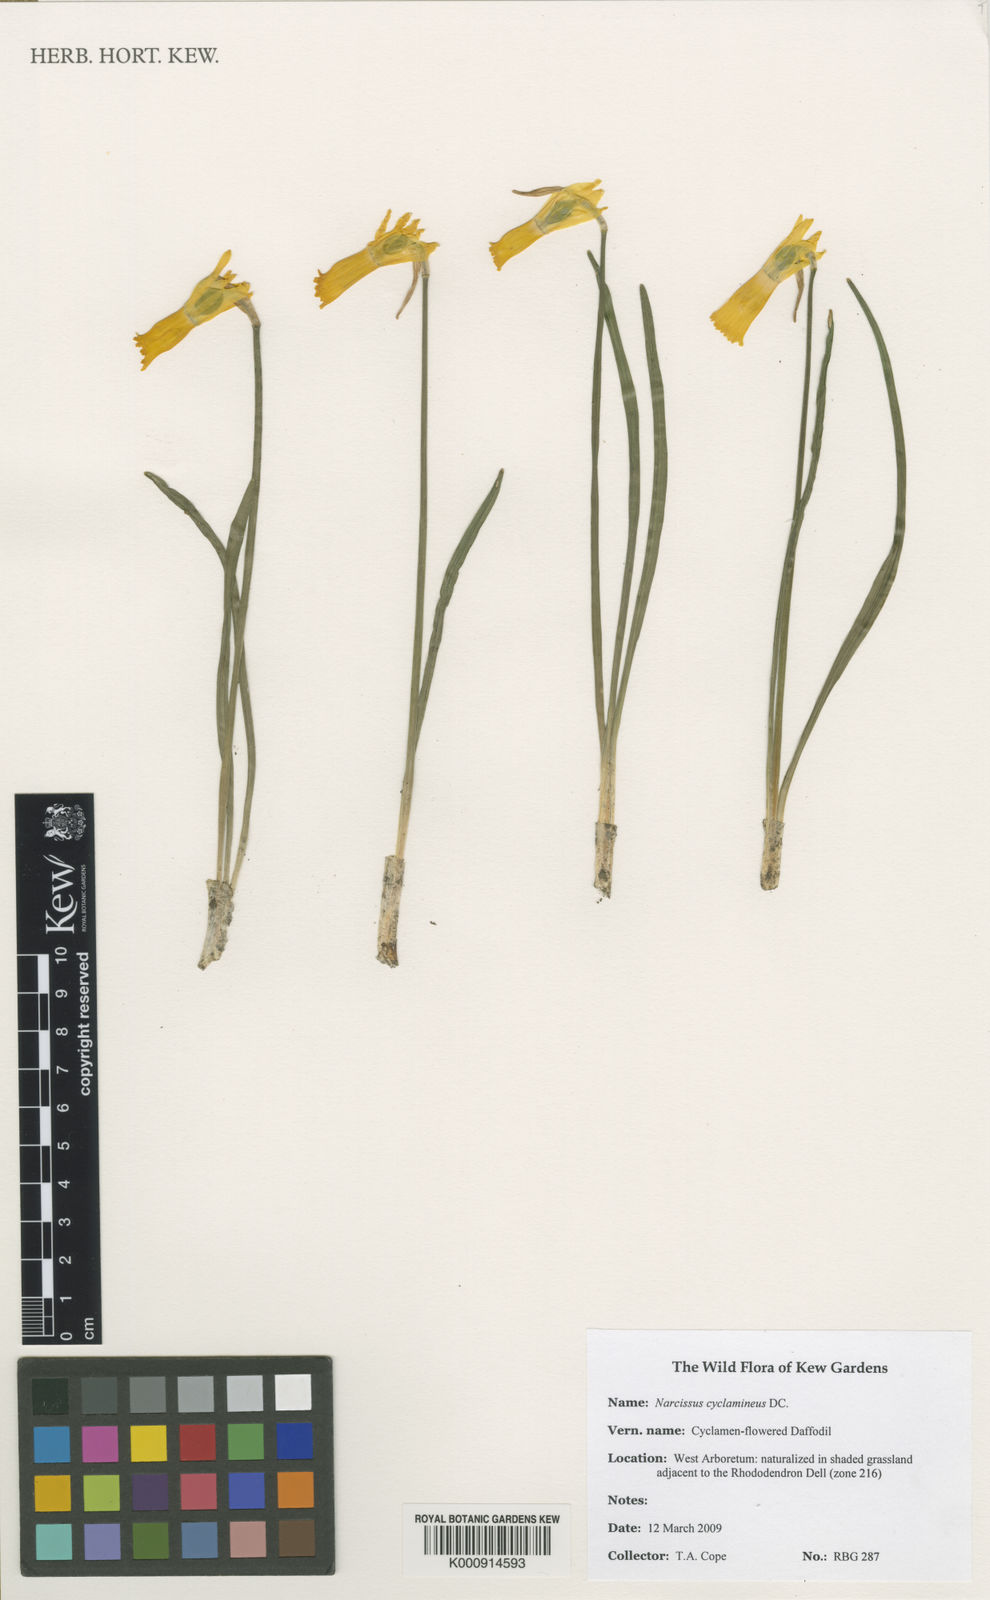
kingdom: Plantae
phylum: Tracheophyta
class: Liliopsida
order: Asparagales
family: Amaryllidaceae
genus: Narcissus
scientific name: Narcissus cyclamineus
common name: Cyclamen-flowered daffodil
